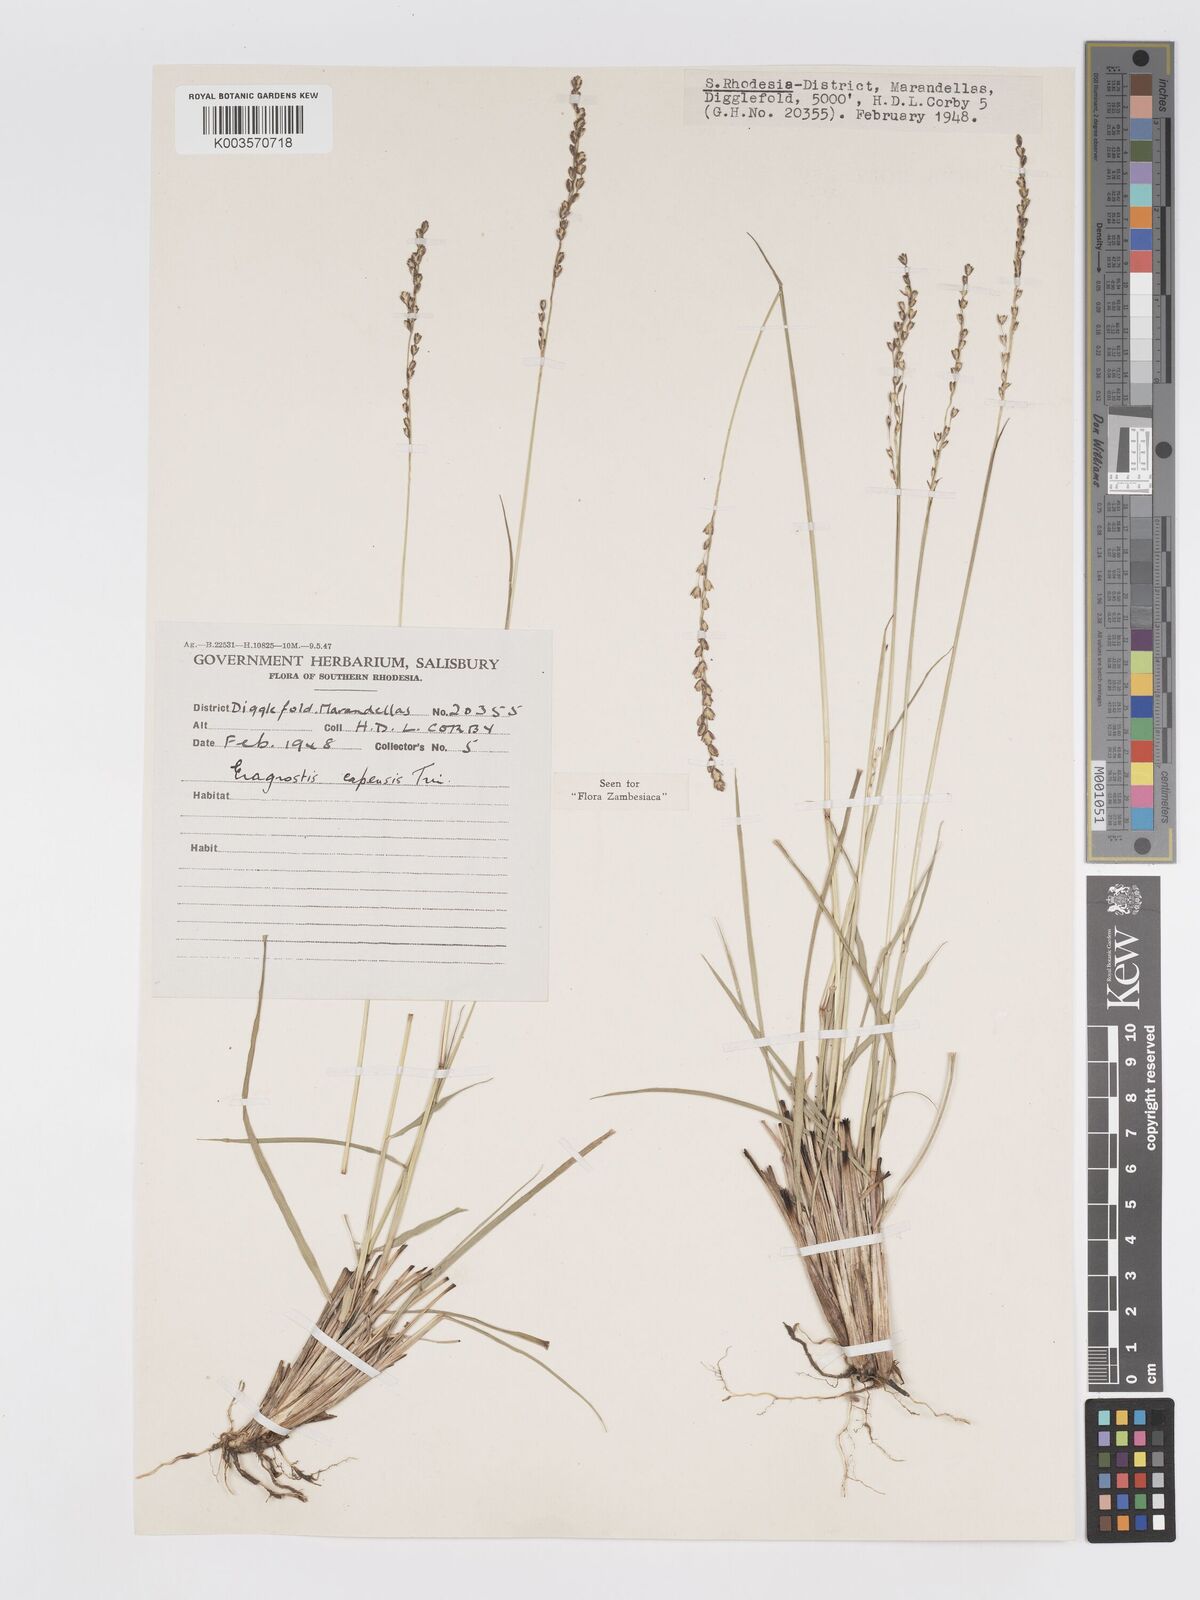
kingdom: Plantae
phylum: Tracheophyta
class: Liliopsida
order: Poales
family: Poaceae
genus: Eragrostis
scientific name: Eragrostis capensis
